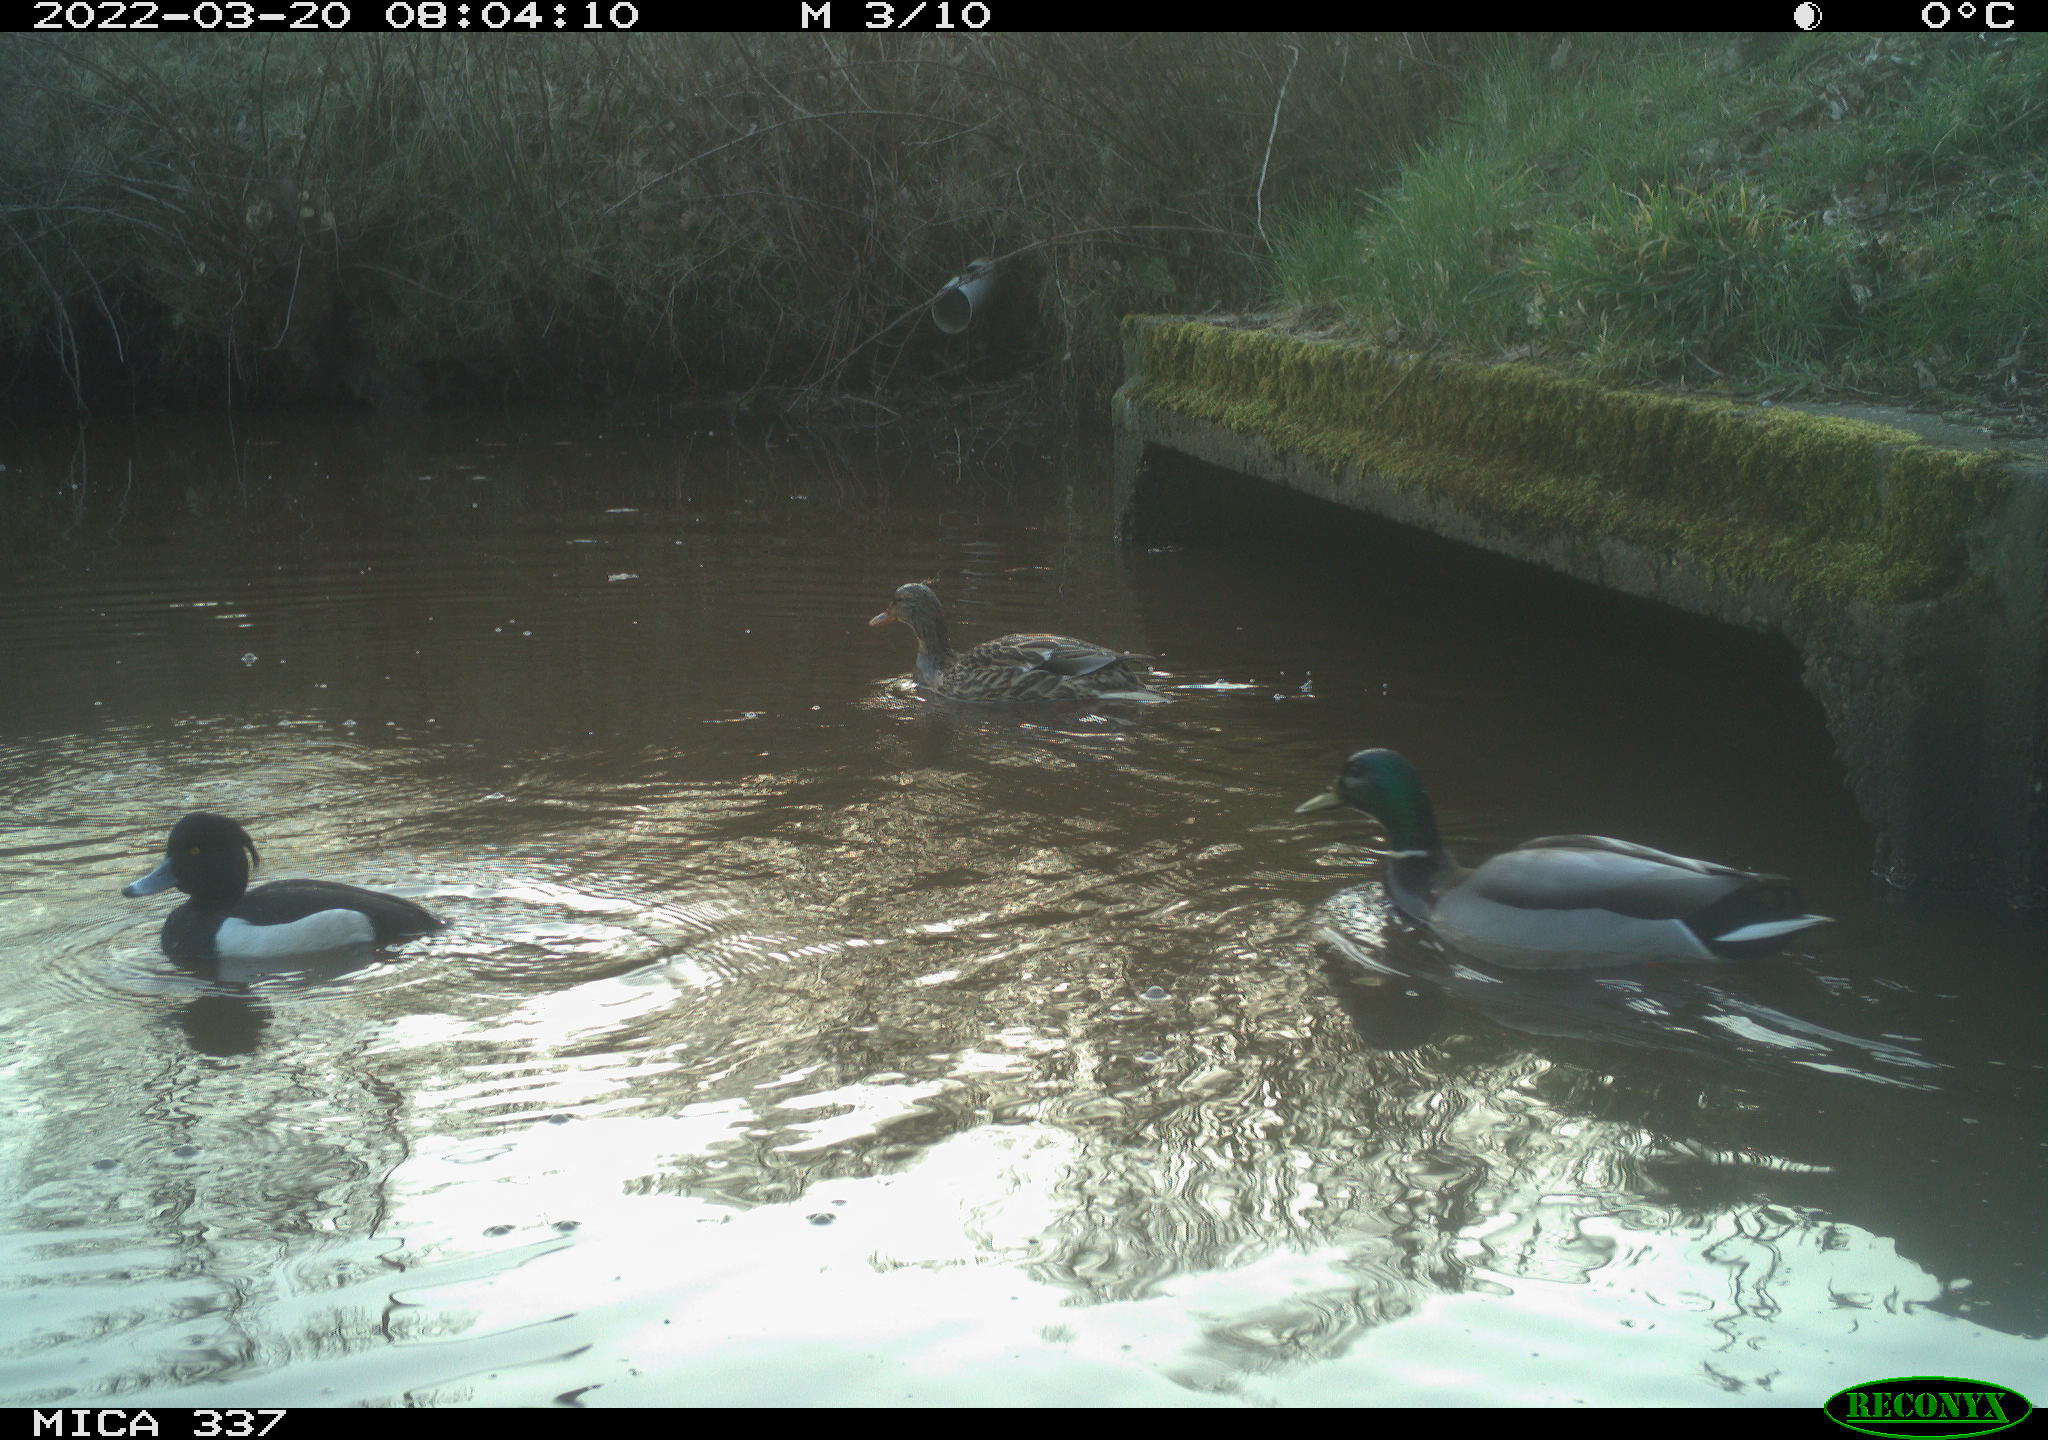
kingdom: Animalia
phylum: Chordata
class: Aves
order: Anseriformes
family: Anatidae
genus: Aythya
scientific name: Aythya fuligula
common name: Tufted duck
